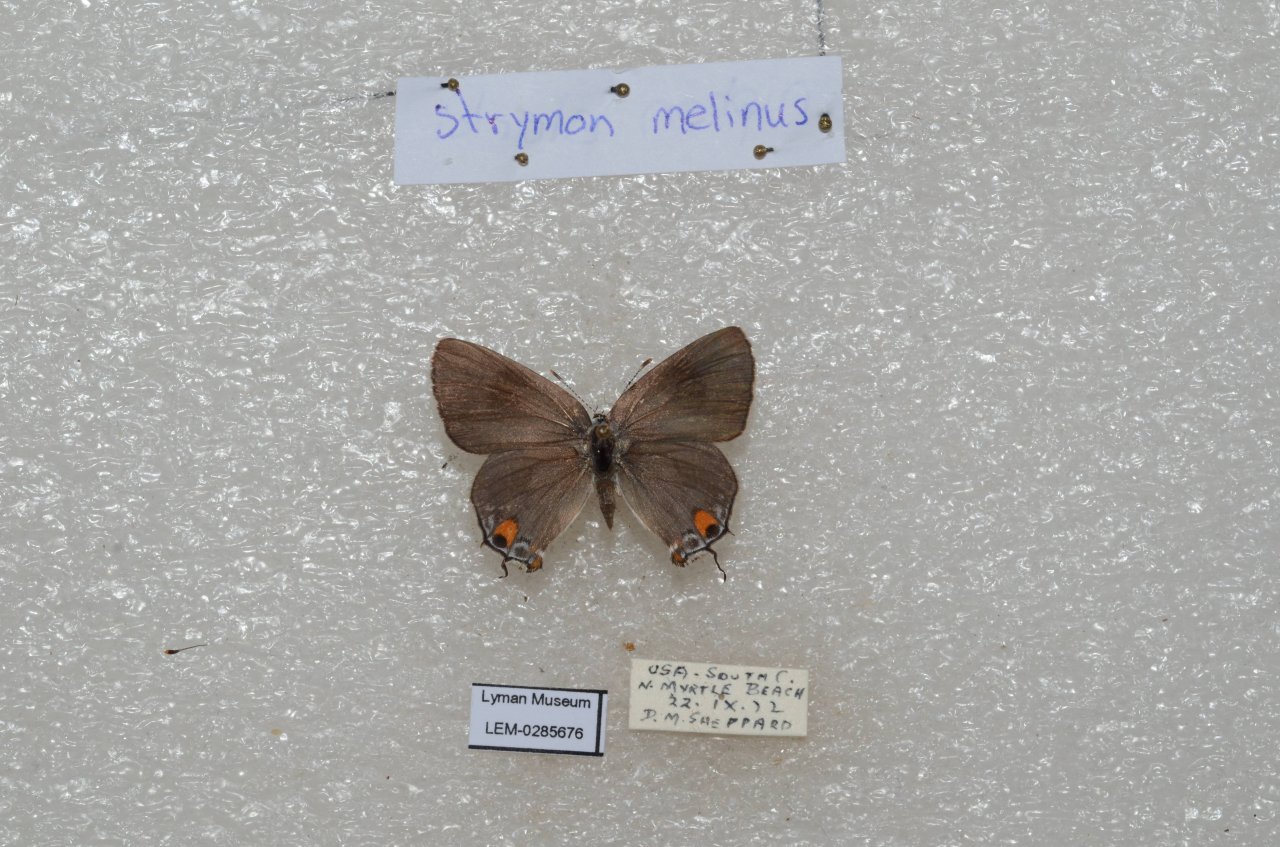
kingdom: Animalia
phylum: Arthropoda
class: Insecta
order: Lepidoptera
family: Lycaenidae
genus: Strymon
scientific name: Strymon melinus
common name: Gray Hairstreak
